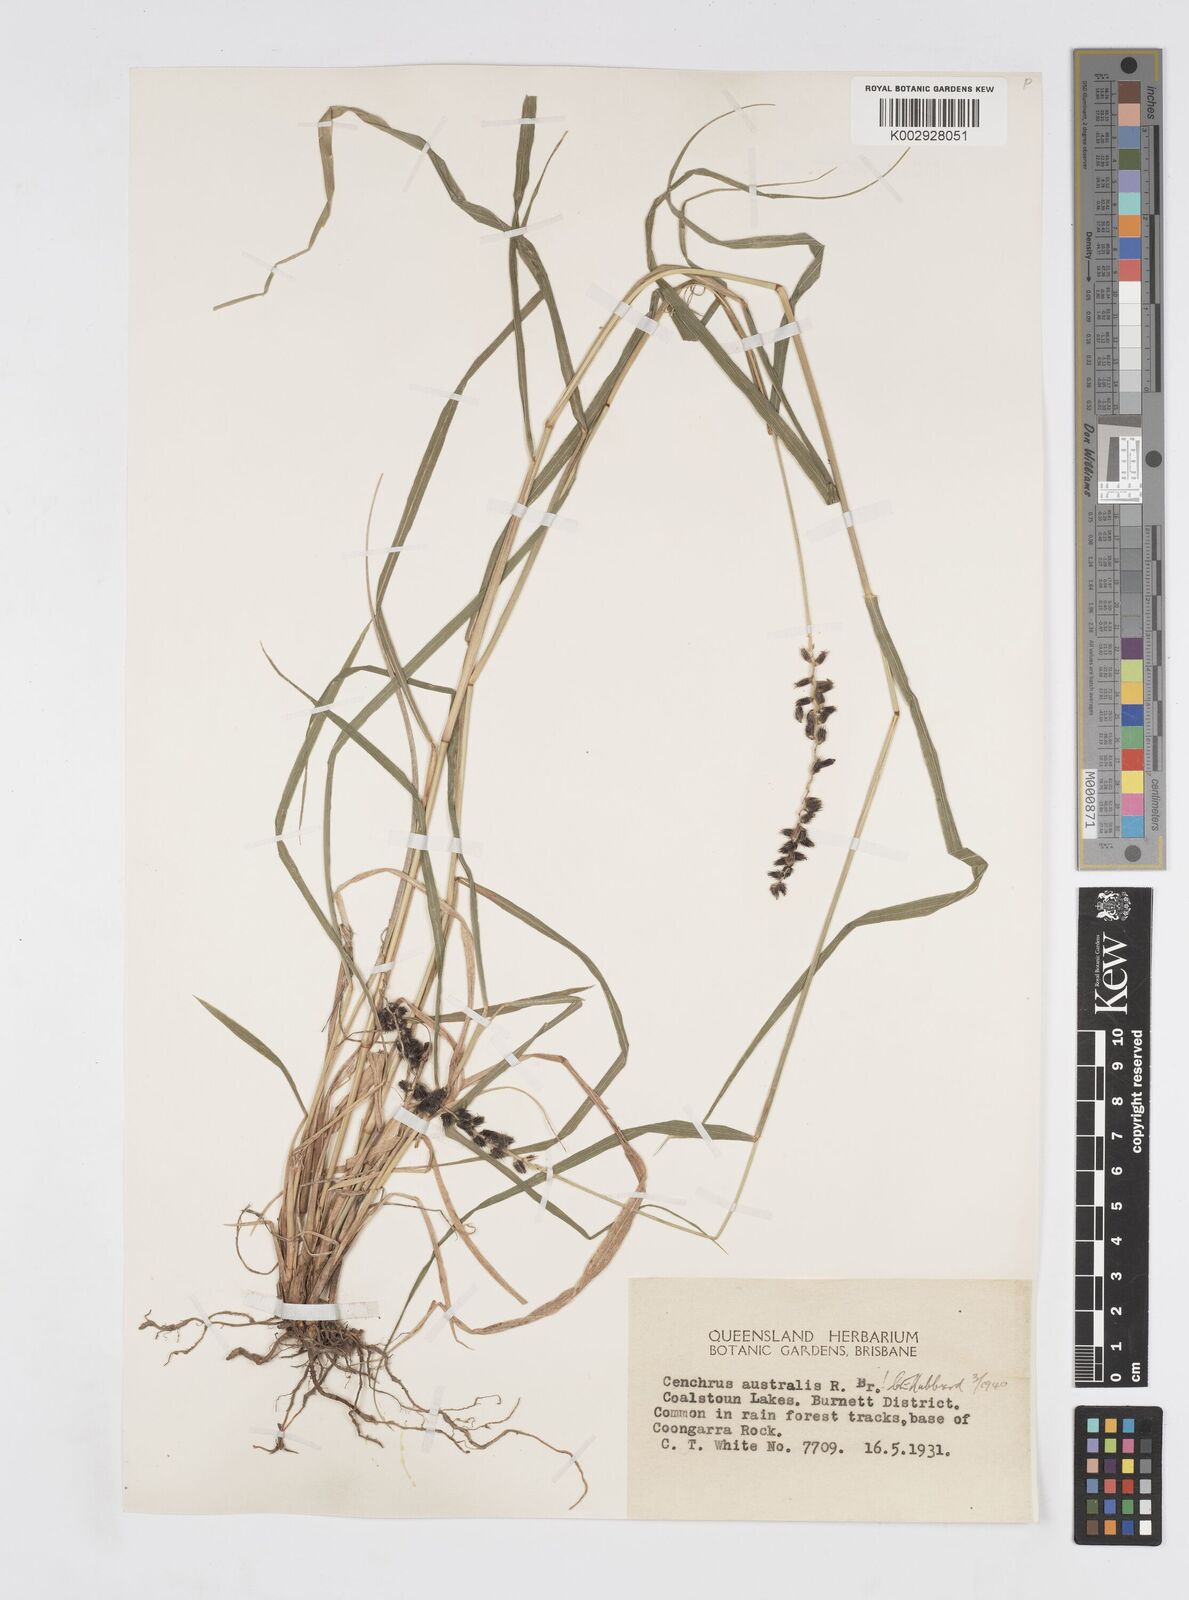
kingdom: Plantae
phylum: Tracheophyta
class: Liliopsida
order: Poales
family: Poaceae
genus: Cenchrus
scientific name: Cenchrus caliculatus
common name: Large bur grass
